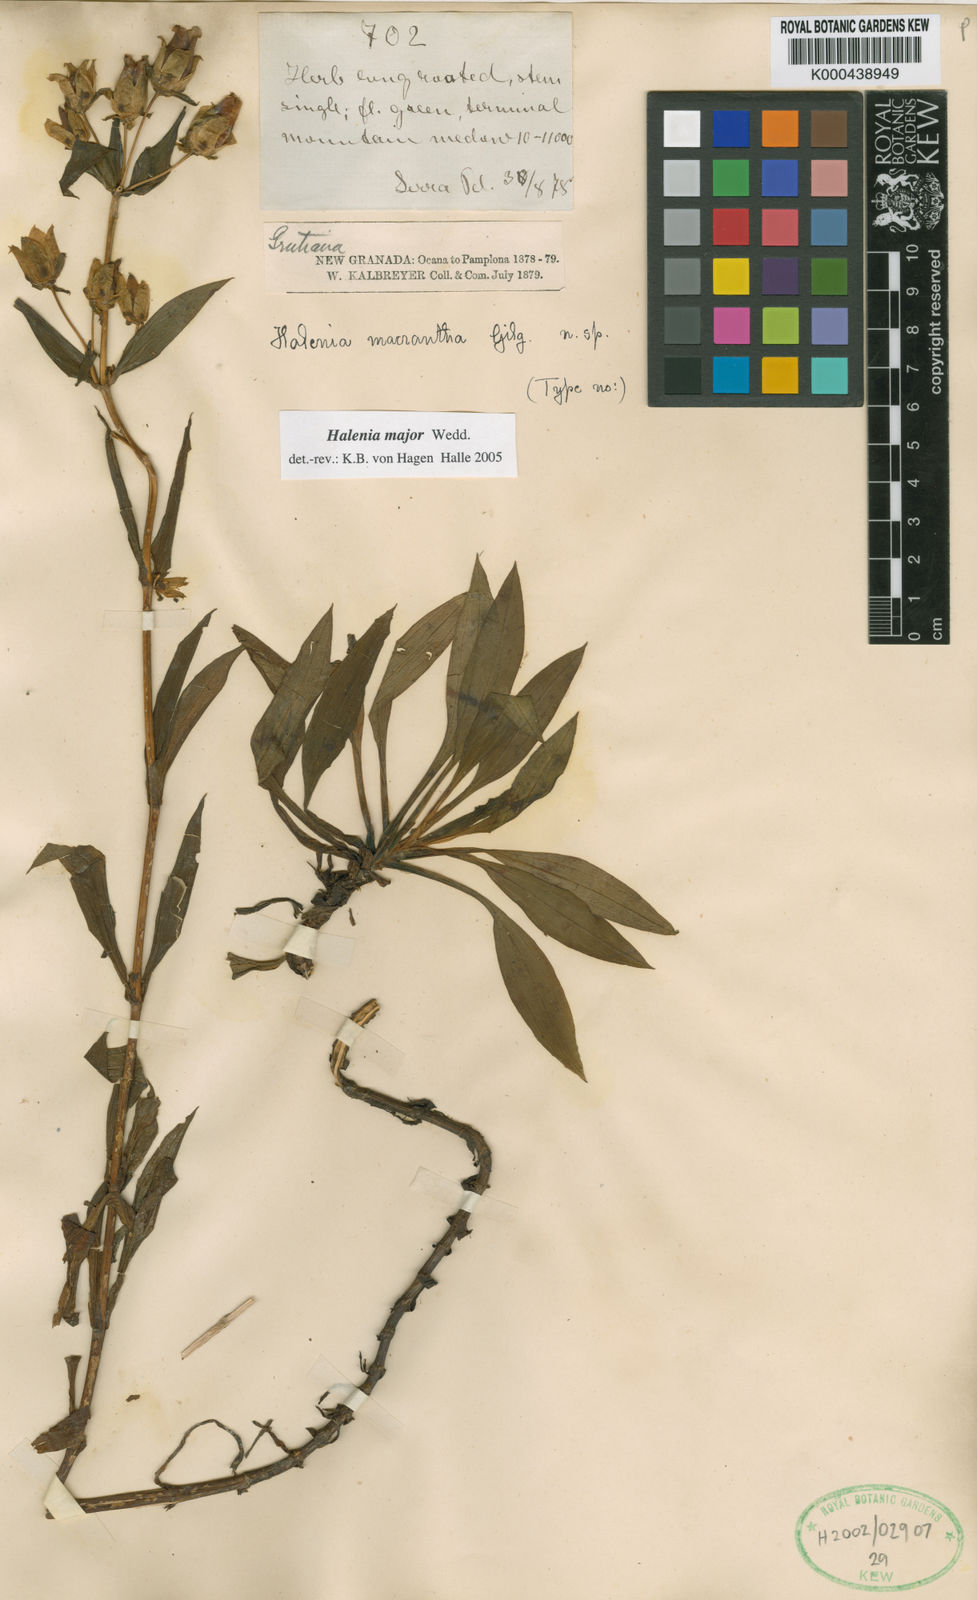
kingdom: Plantae
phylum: Tracheophyta
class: Magnoliopsida
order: Gentianales
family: Gentianaceae
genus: Halenia
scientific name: Halenia major
